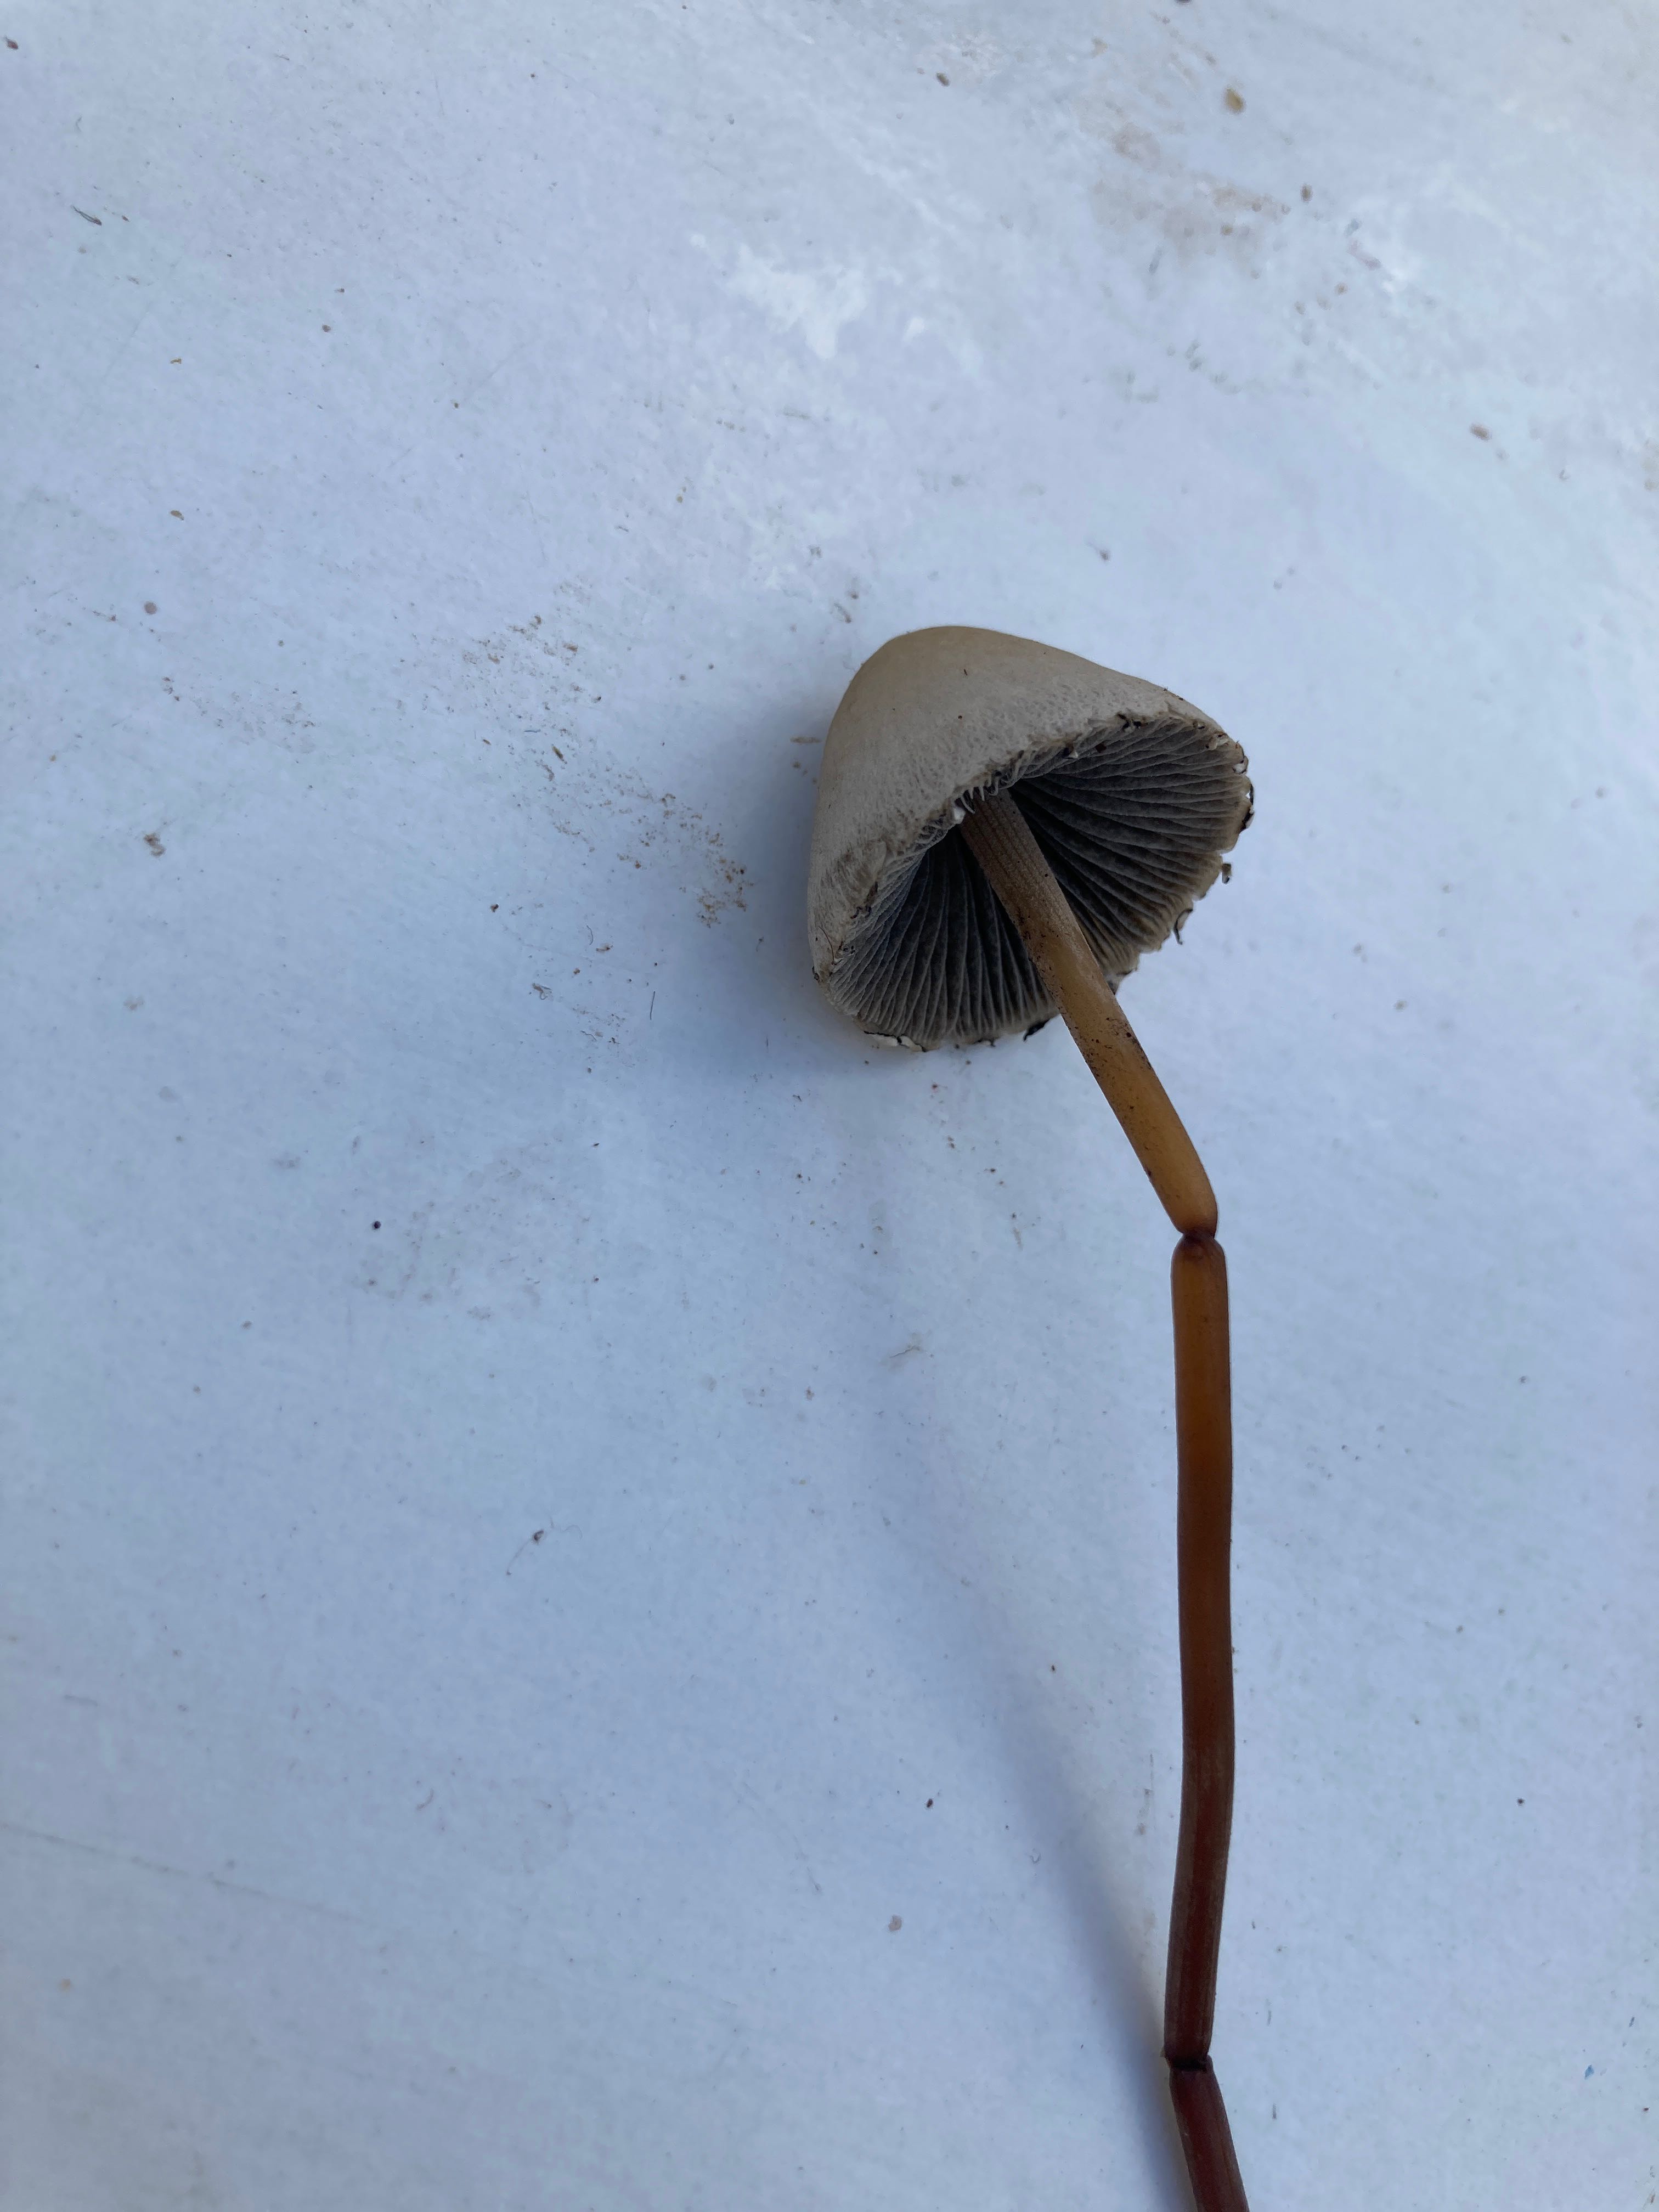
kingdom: Fungi
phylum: Basidiomycota
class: Agaricomycetes
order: Agaricales
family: Bolbitiaceae
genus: Panaeolus
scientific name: Panaeolus papilionaceus
